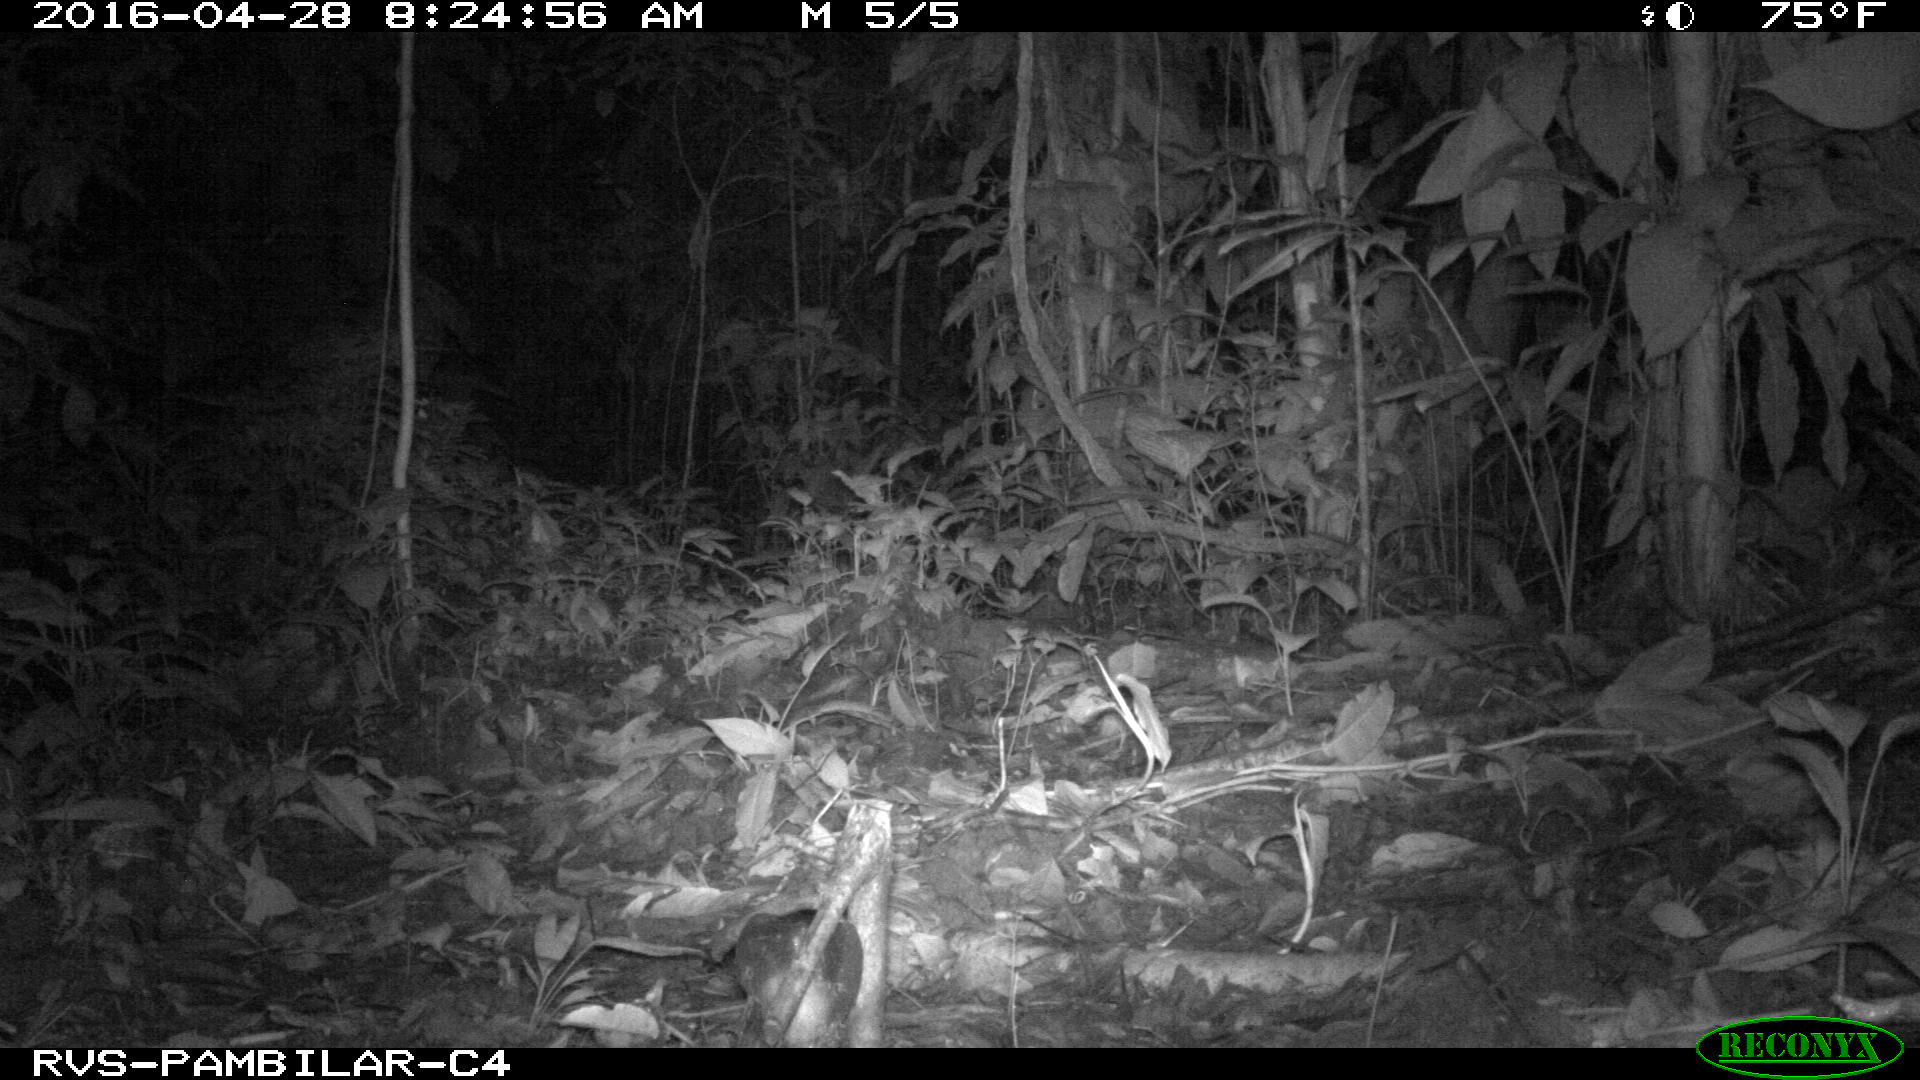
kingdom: Animalia
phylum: Chordata
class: Mammalia
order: Artiodactyla
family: Tayassuidae
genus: Tayassu
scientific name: Tayassu pecari
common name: White-lipped peccary
